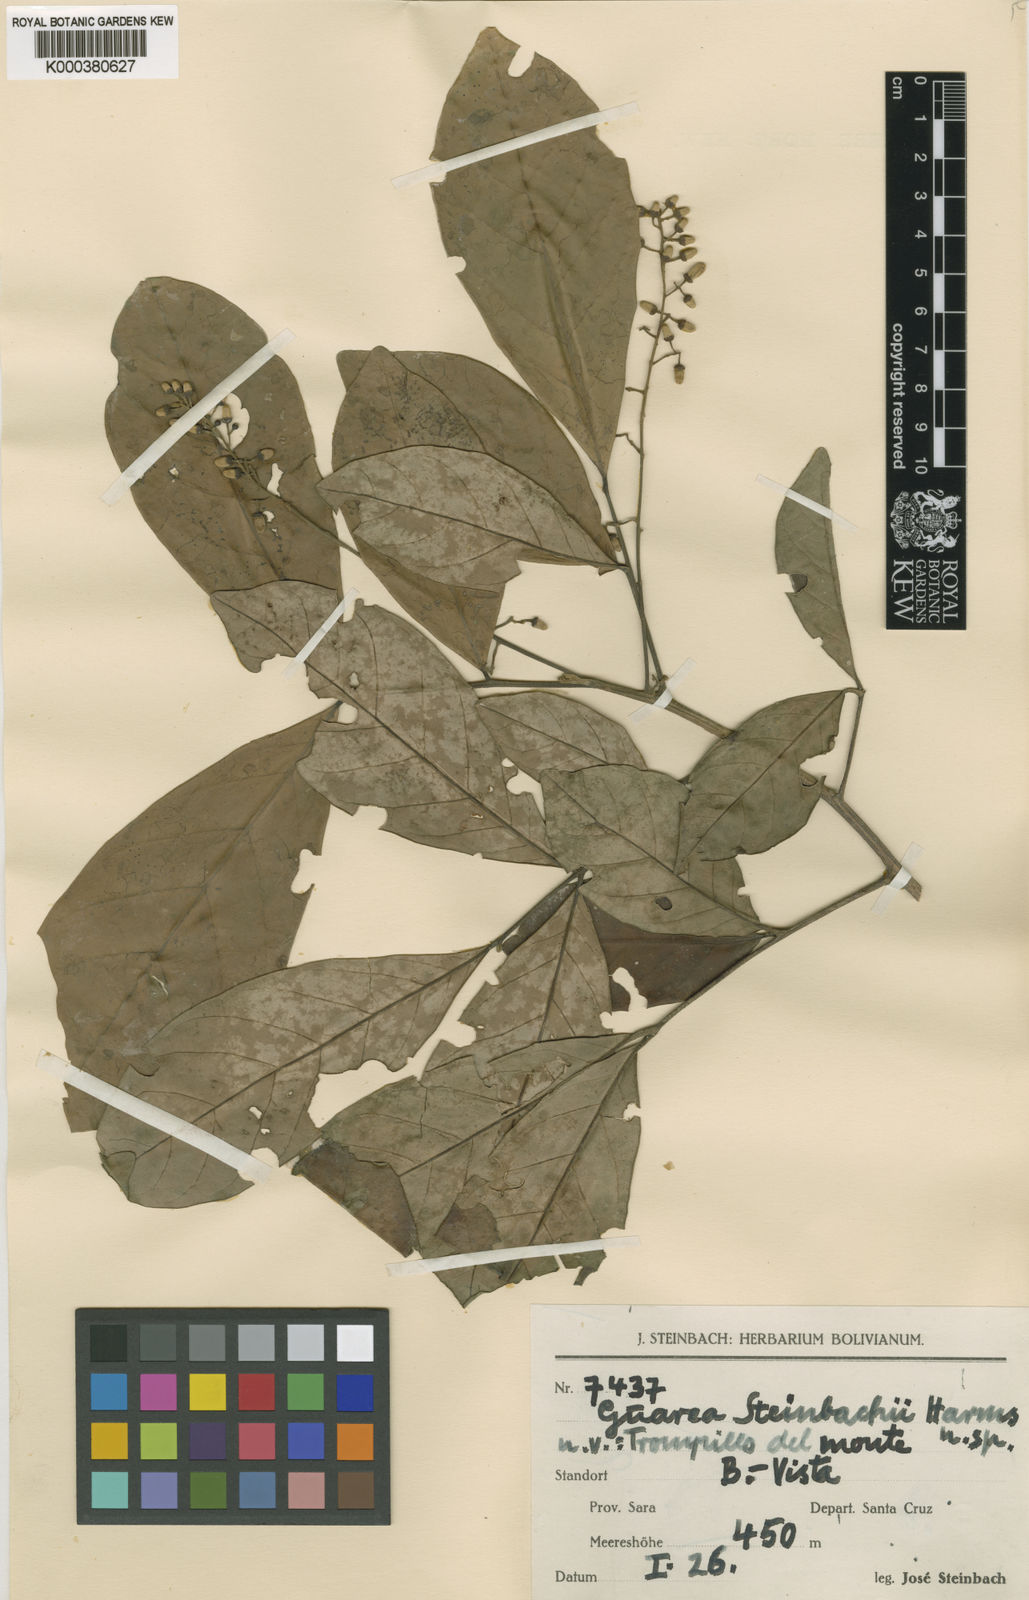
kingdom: Plantae
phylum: Tracheophyta
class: Magnoliopsida
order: Sapindales
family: Meliaceae
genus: Guarea
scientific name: Guarea kunthiana
